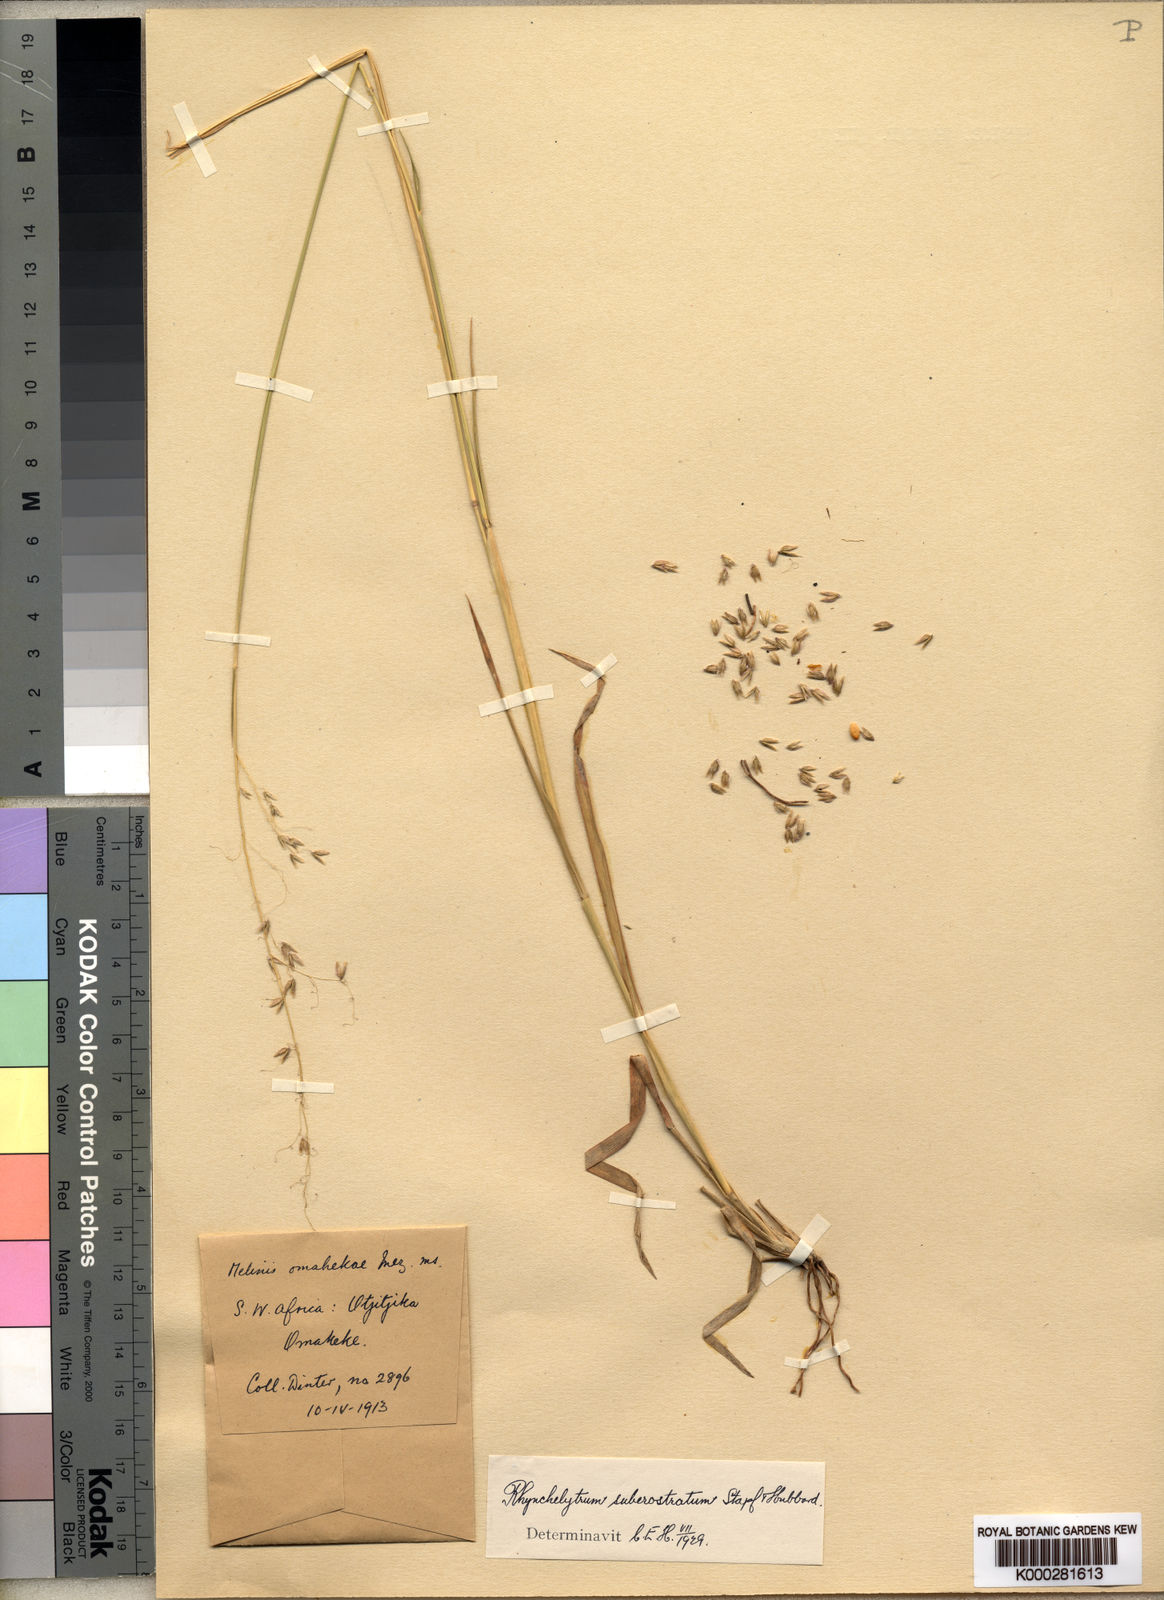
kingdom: Plantae
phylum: Tracheophyta
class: Liliopsida
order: Poales
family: Poaceae
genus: Melinis
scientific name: Melinis repens
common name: Rose natal grass
